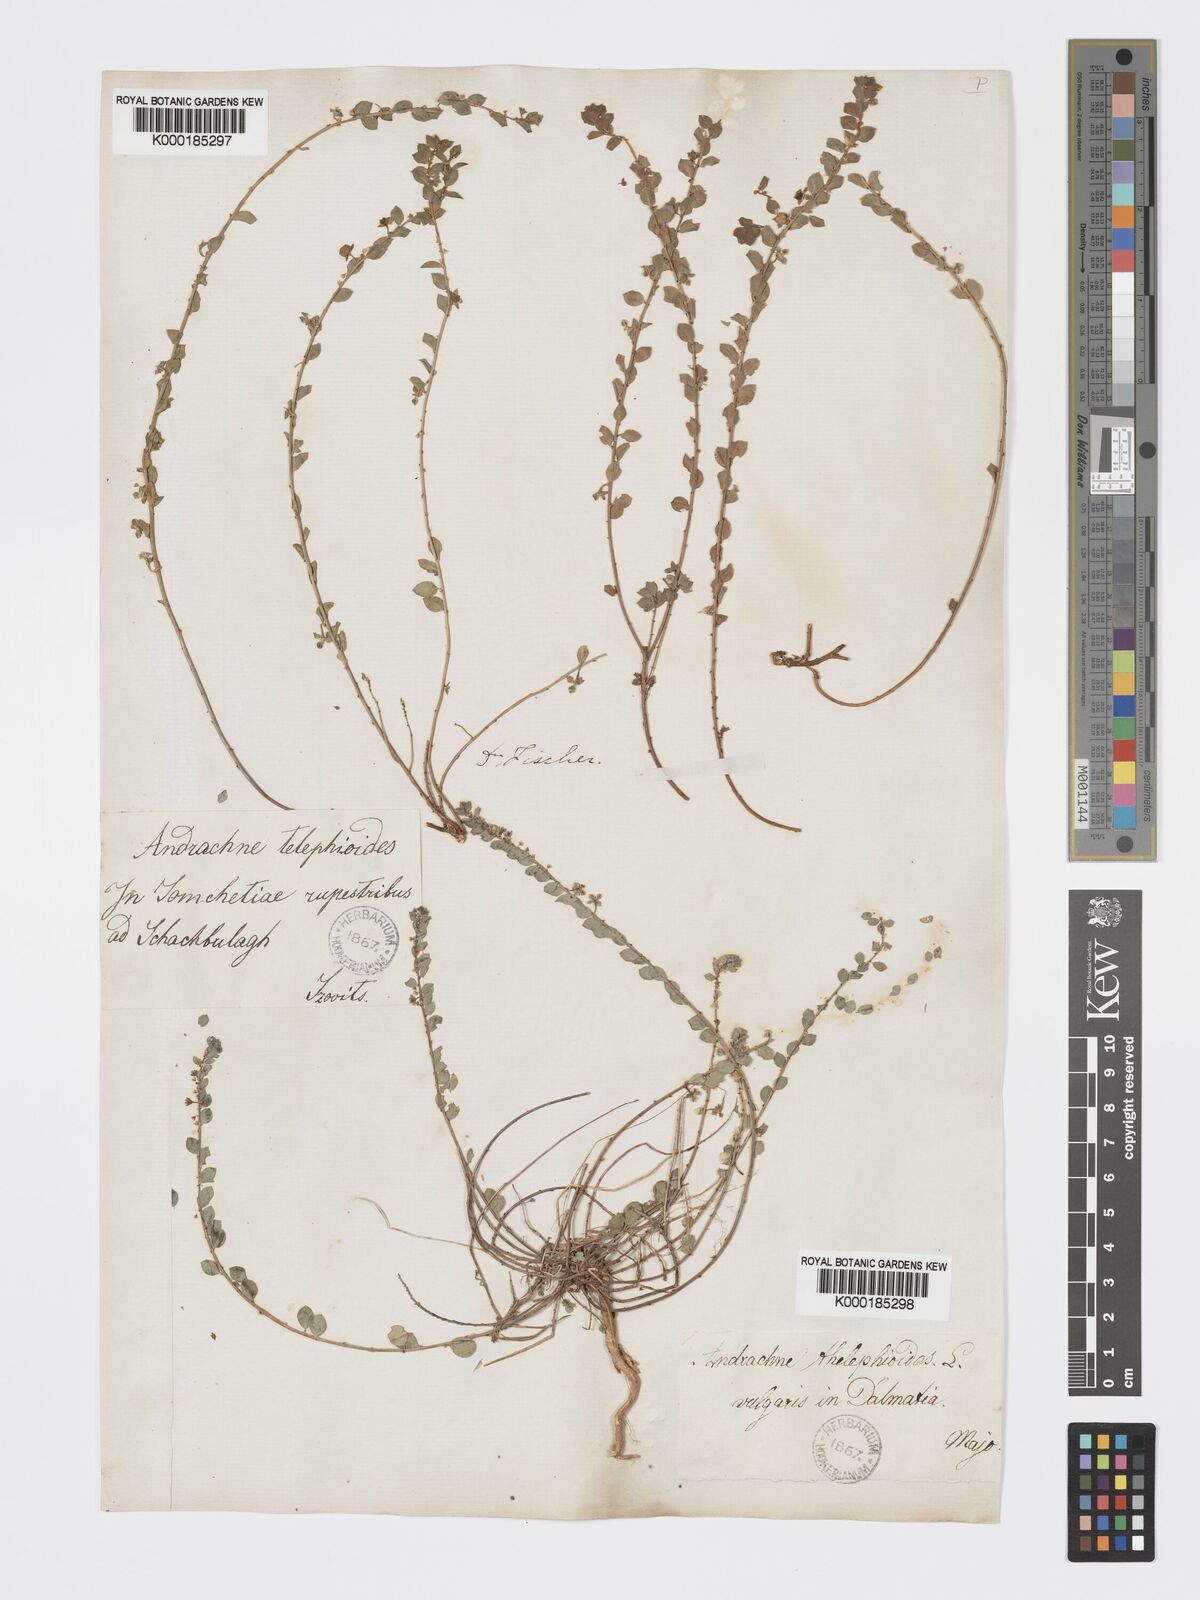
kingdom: Plantae
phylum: Tracheophyta
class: Magnoliopsida
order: Malpighiales
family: Phyllanthaceae
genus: Andrachne
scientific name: Andrachne telephioides
